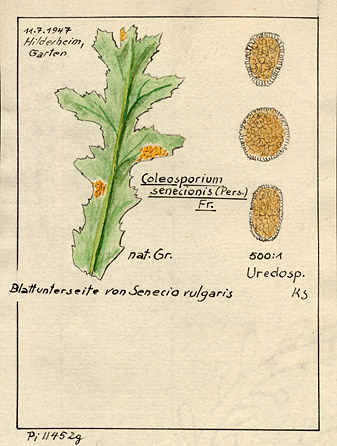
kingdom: Fungi
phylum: Basidiomycota
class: Pucciniomycetes
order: Pucciniales
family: Coleosporiaceae
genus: Coleosporium
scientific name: Coleosporium tussilaginis
